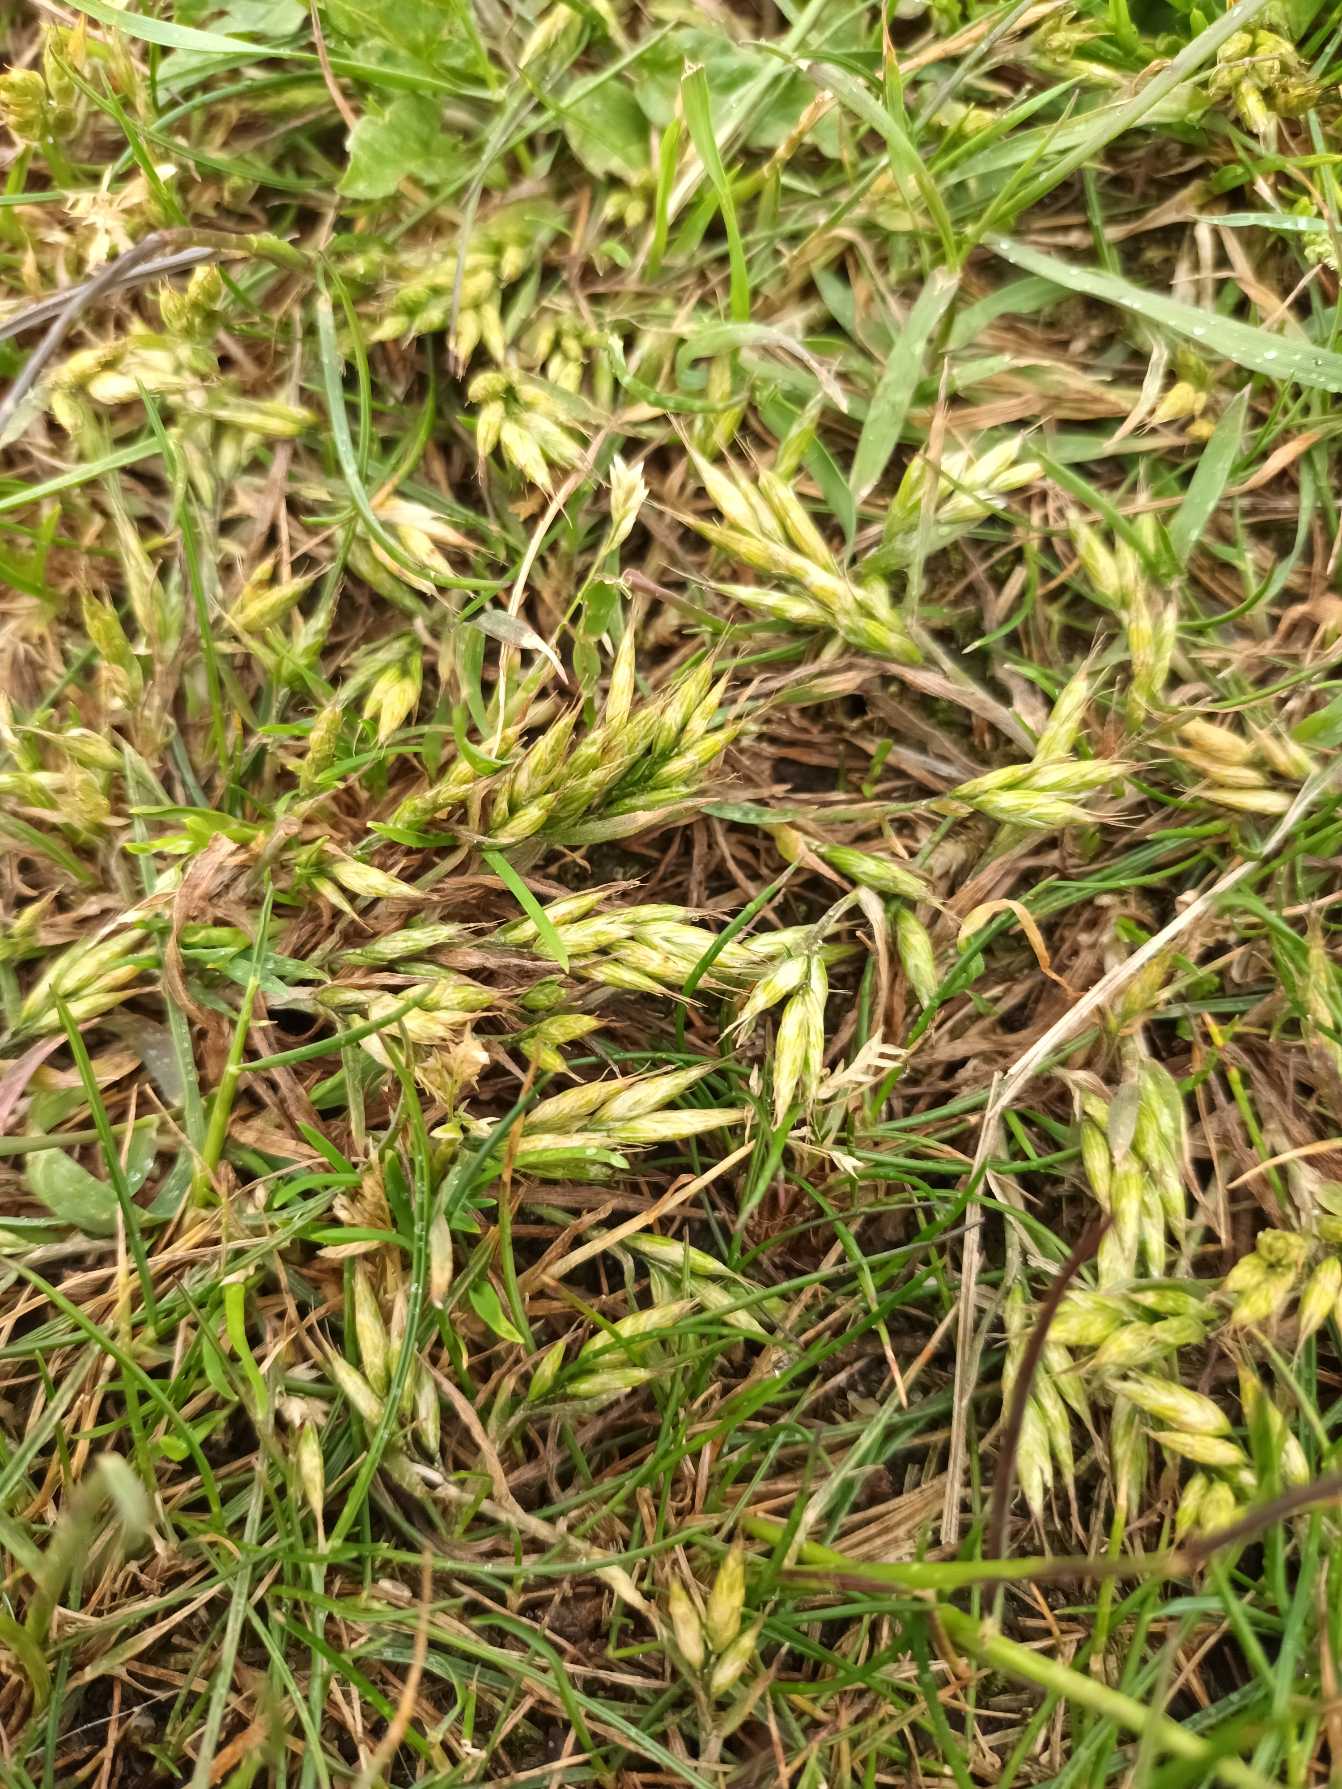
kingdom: Plantae
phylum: Tracheophyta
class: Liliopsida
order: Poales
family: Poaceae
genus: Bromus
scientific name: Bromus hordeaceus
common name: Liggende hejre
